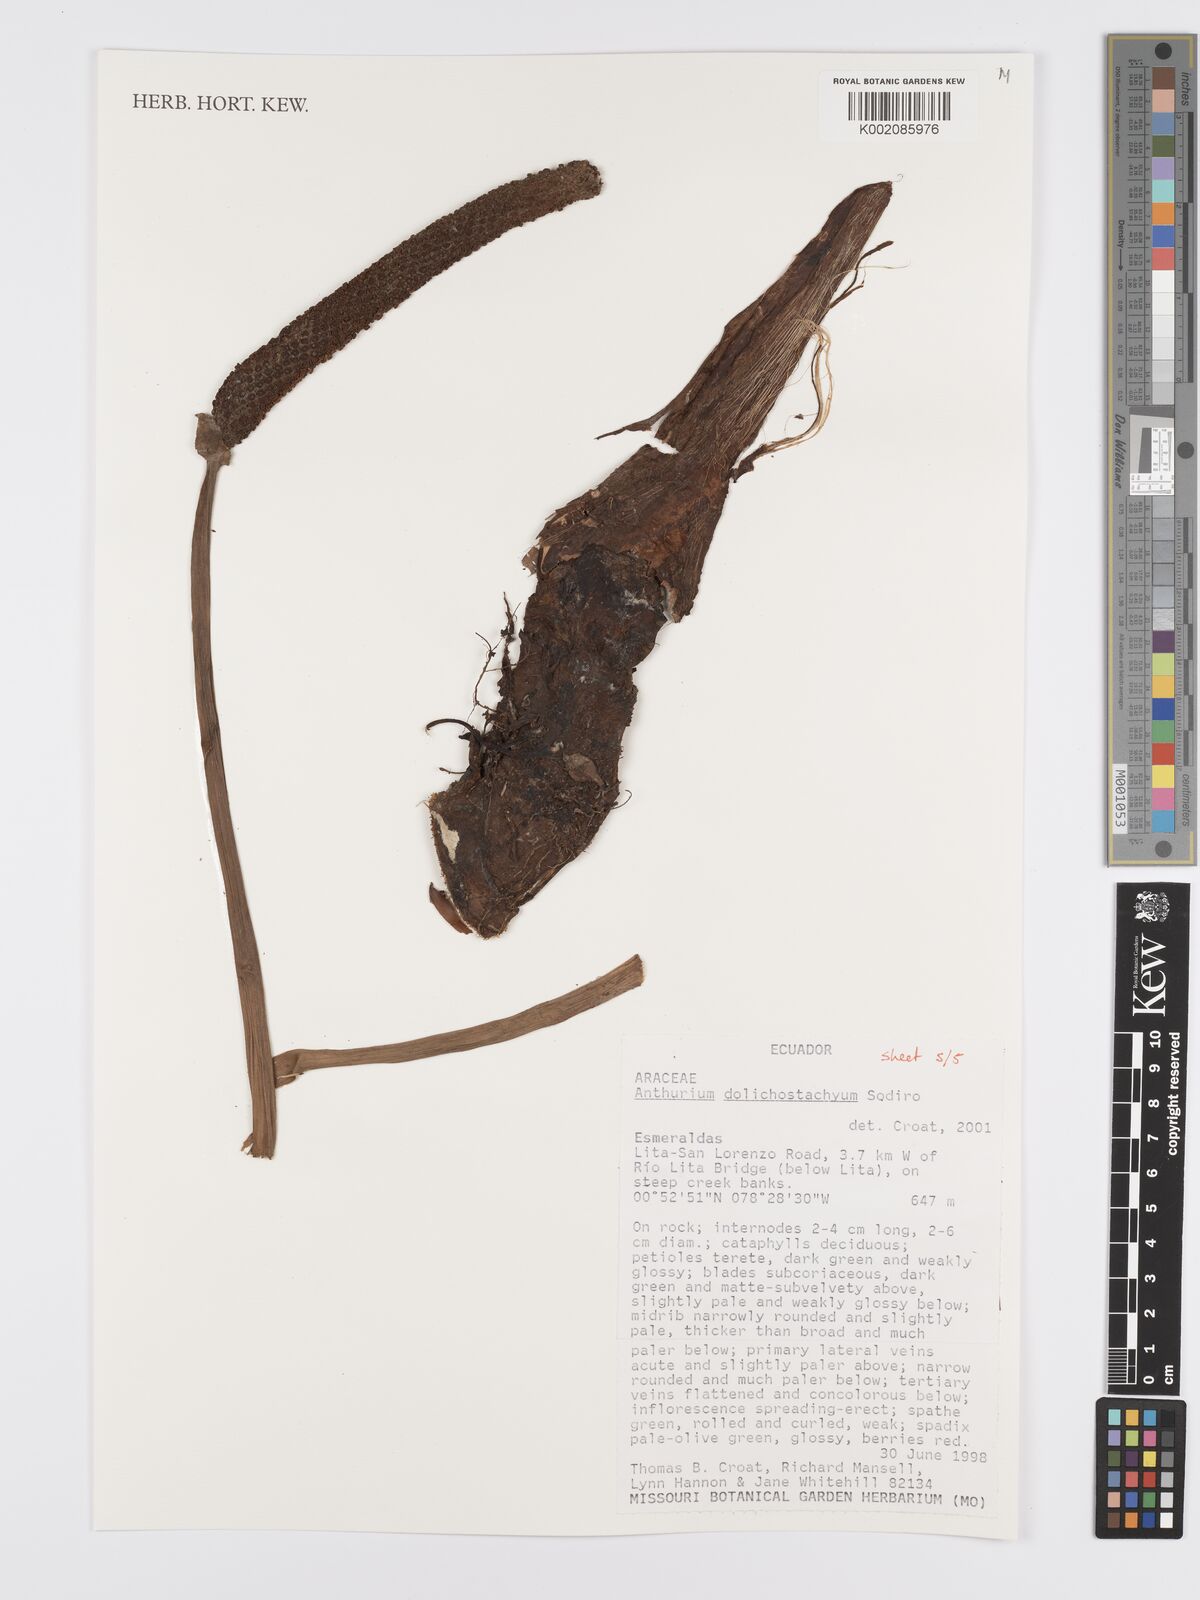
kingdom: Plantae
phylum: Tracheophyta
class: Liliopsida
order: Alismatales
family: Araceae
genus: Anthurium
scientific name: Anthurium dolichostachyum
